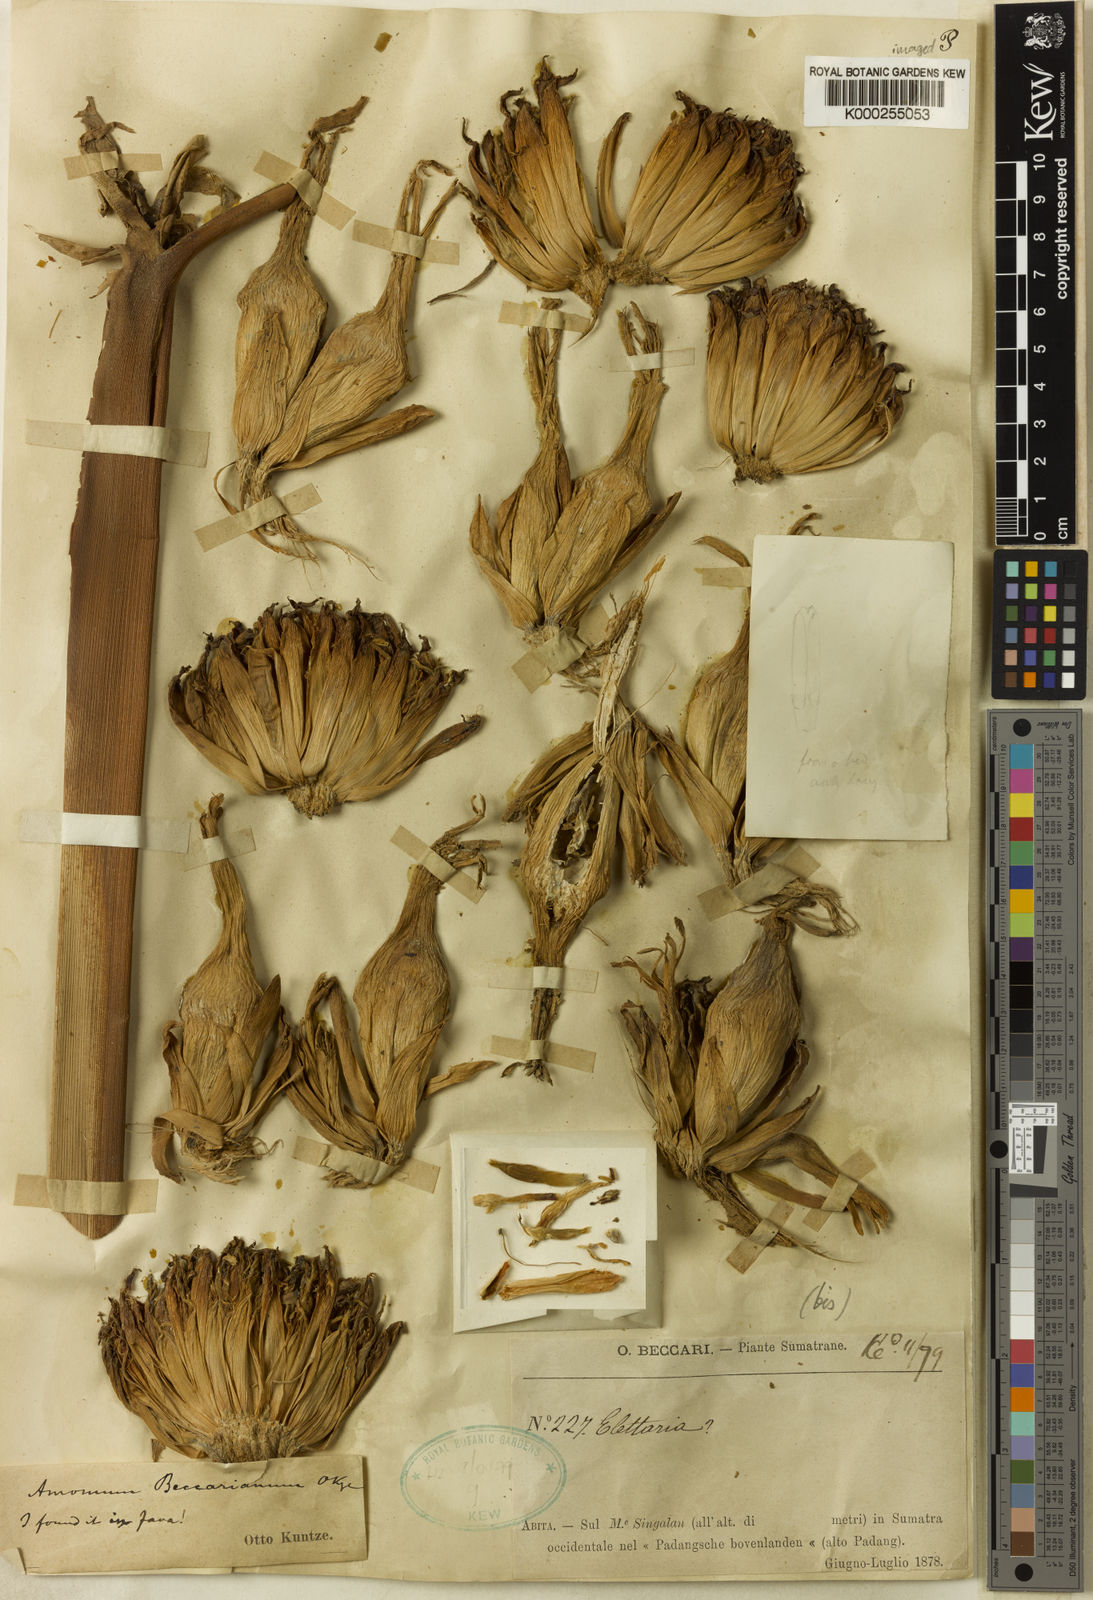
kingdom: Plantae
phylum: Tracheophyta
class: Liliopsida
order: Zingiberales
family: Zingiberaceae
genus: Etlingera
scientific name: Etlingera solaris
